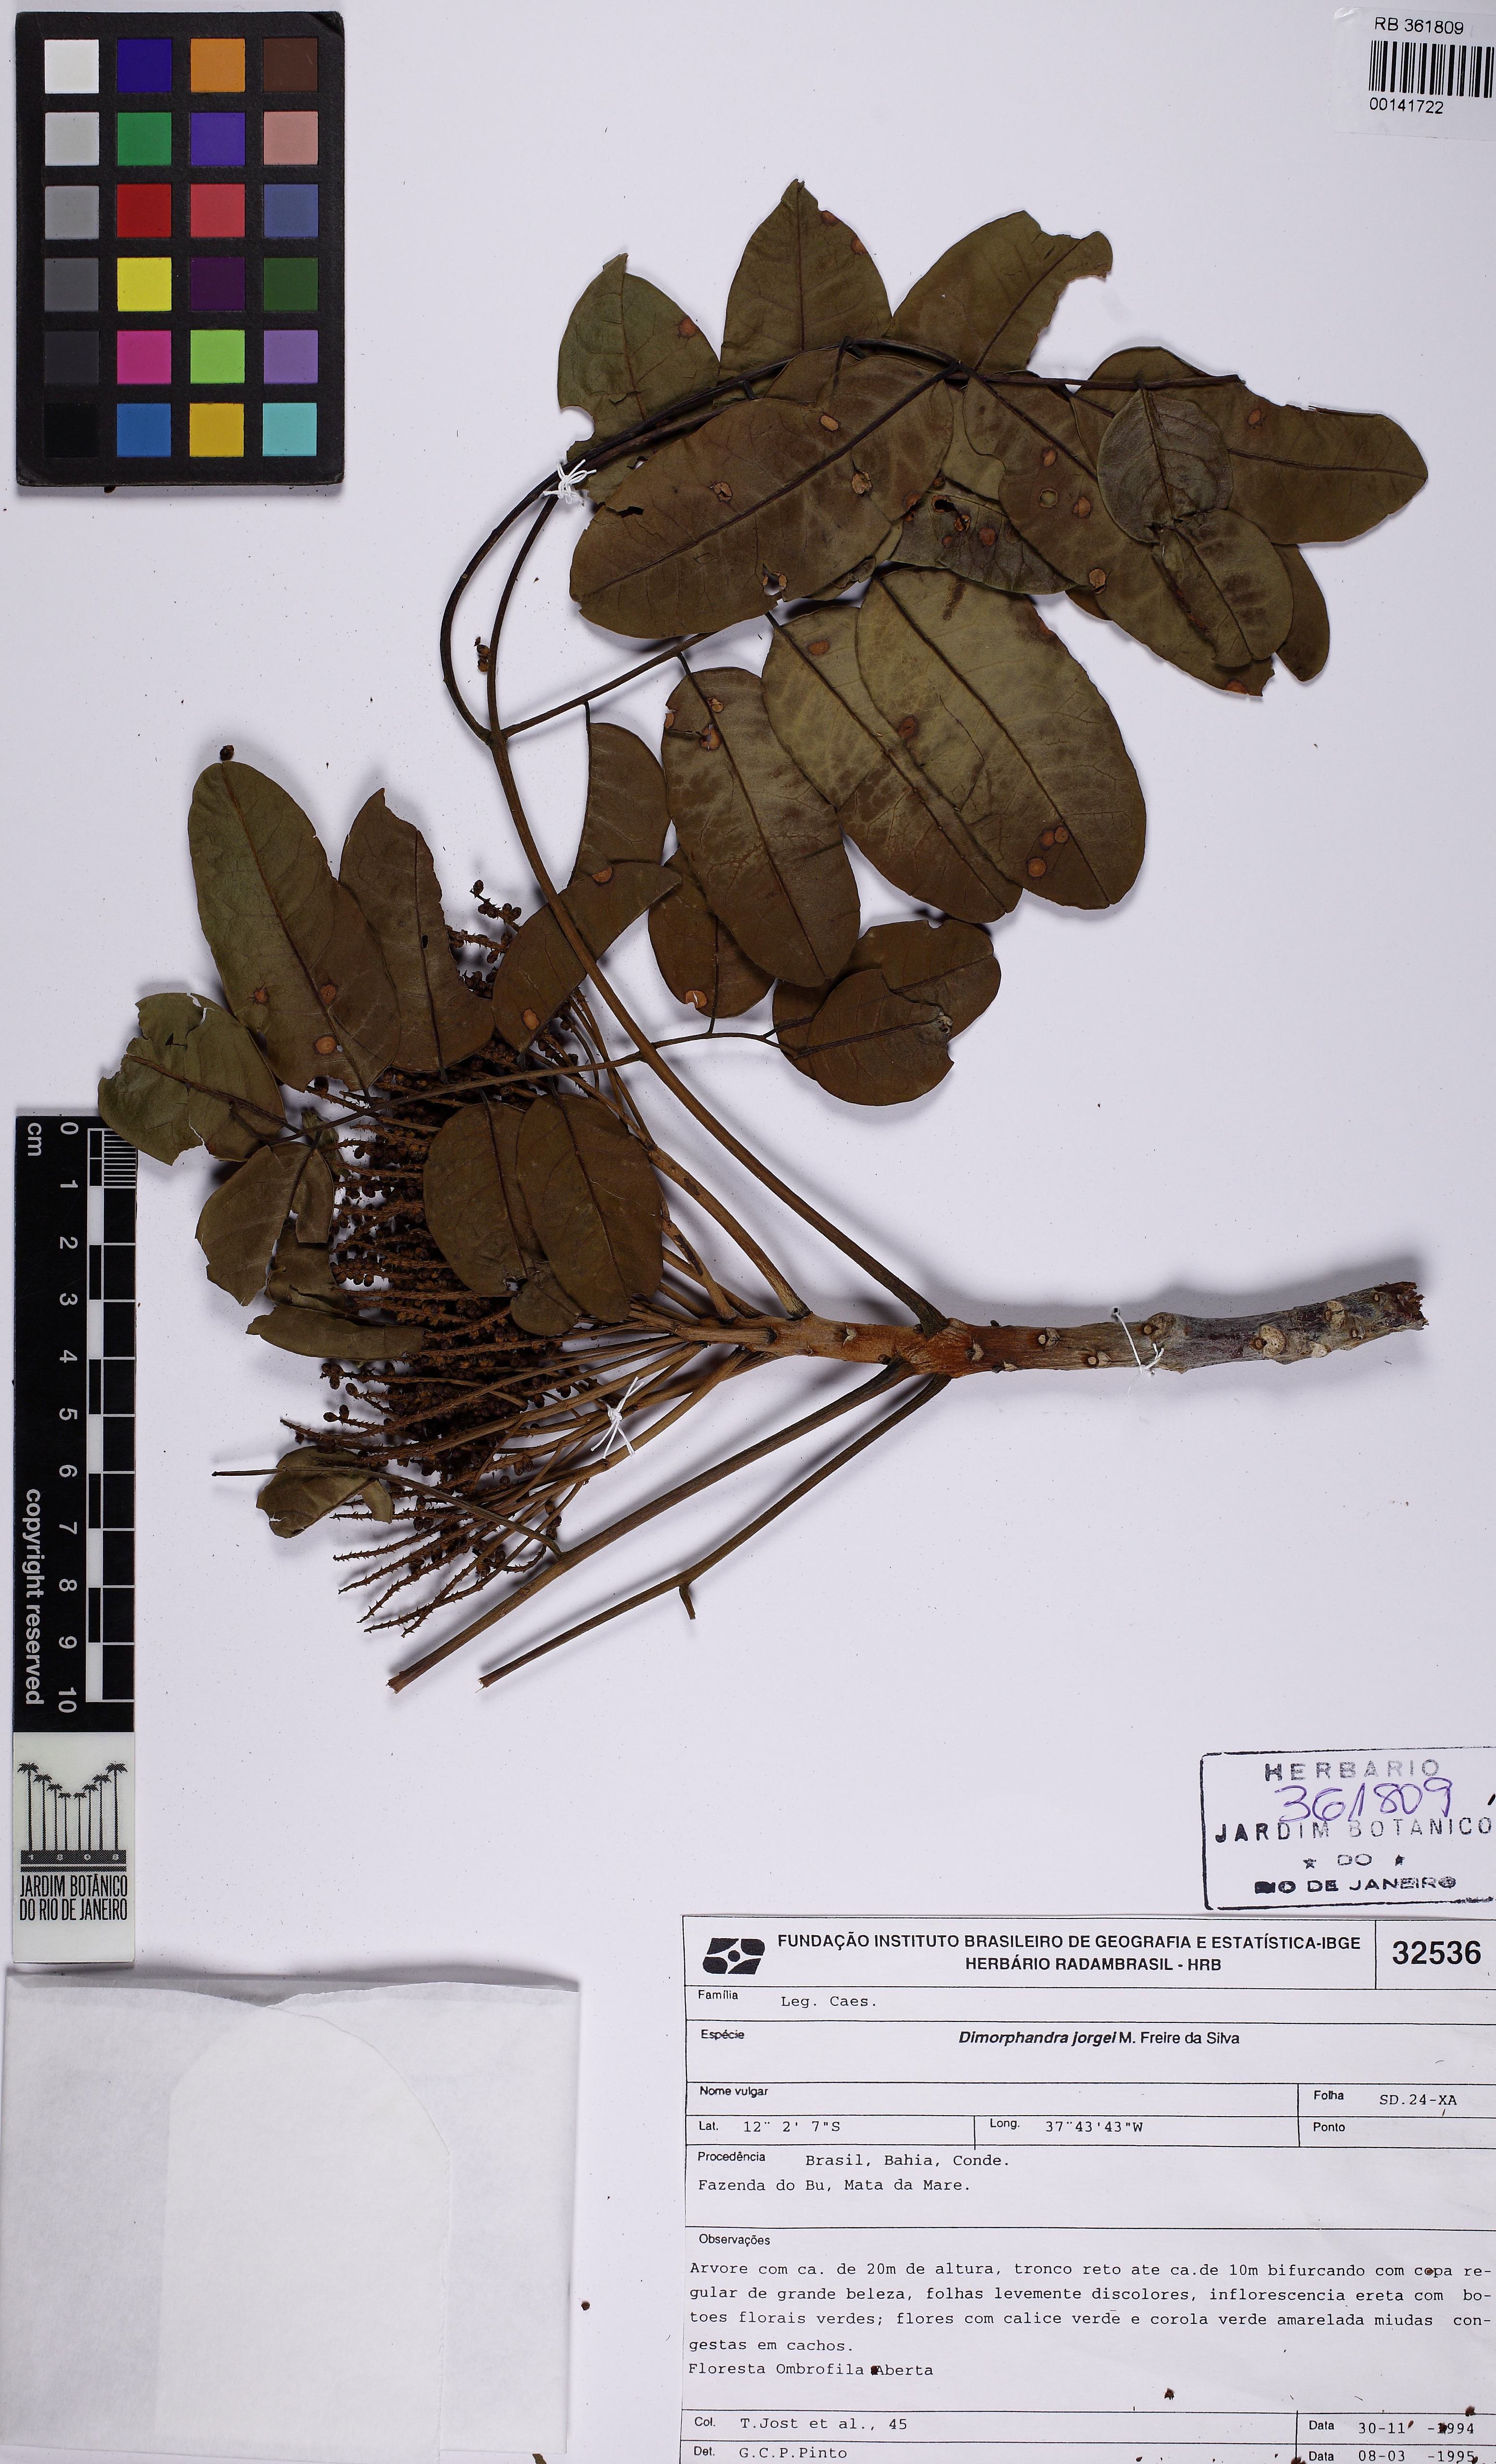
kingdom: Plantae
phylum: Tracheophyta
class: Magnoliopsida
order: Fabales
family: Fabaceae
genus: Dimorphandra
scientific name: Dimorphandra jorgei
